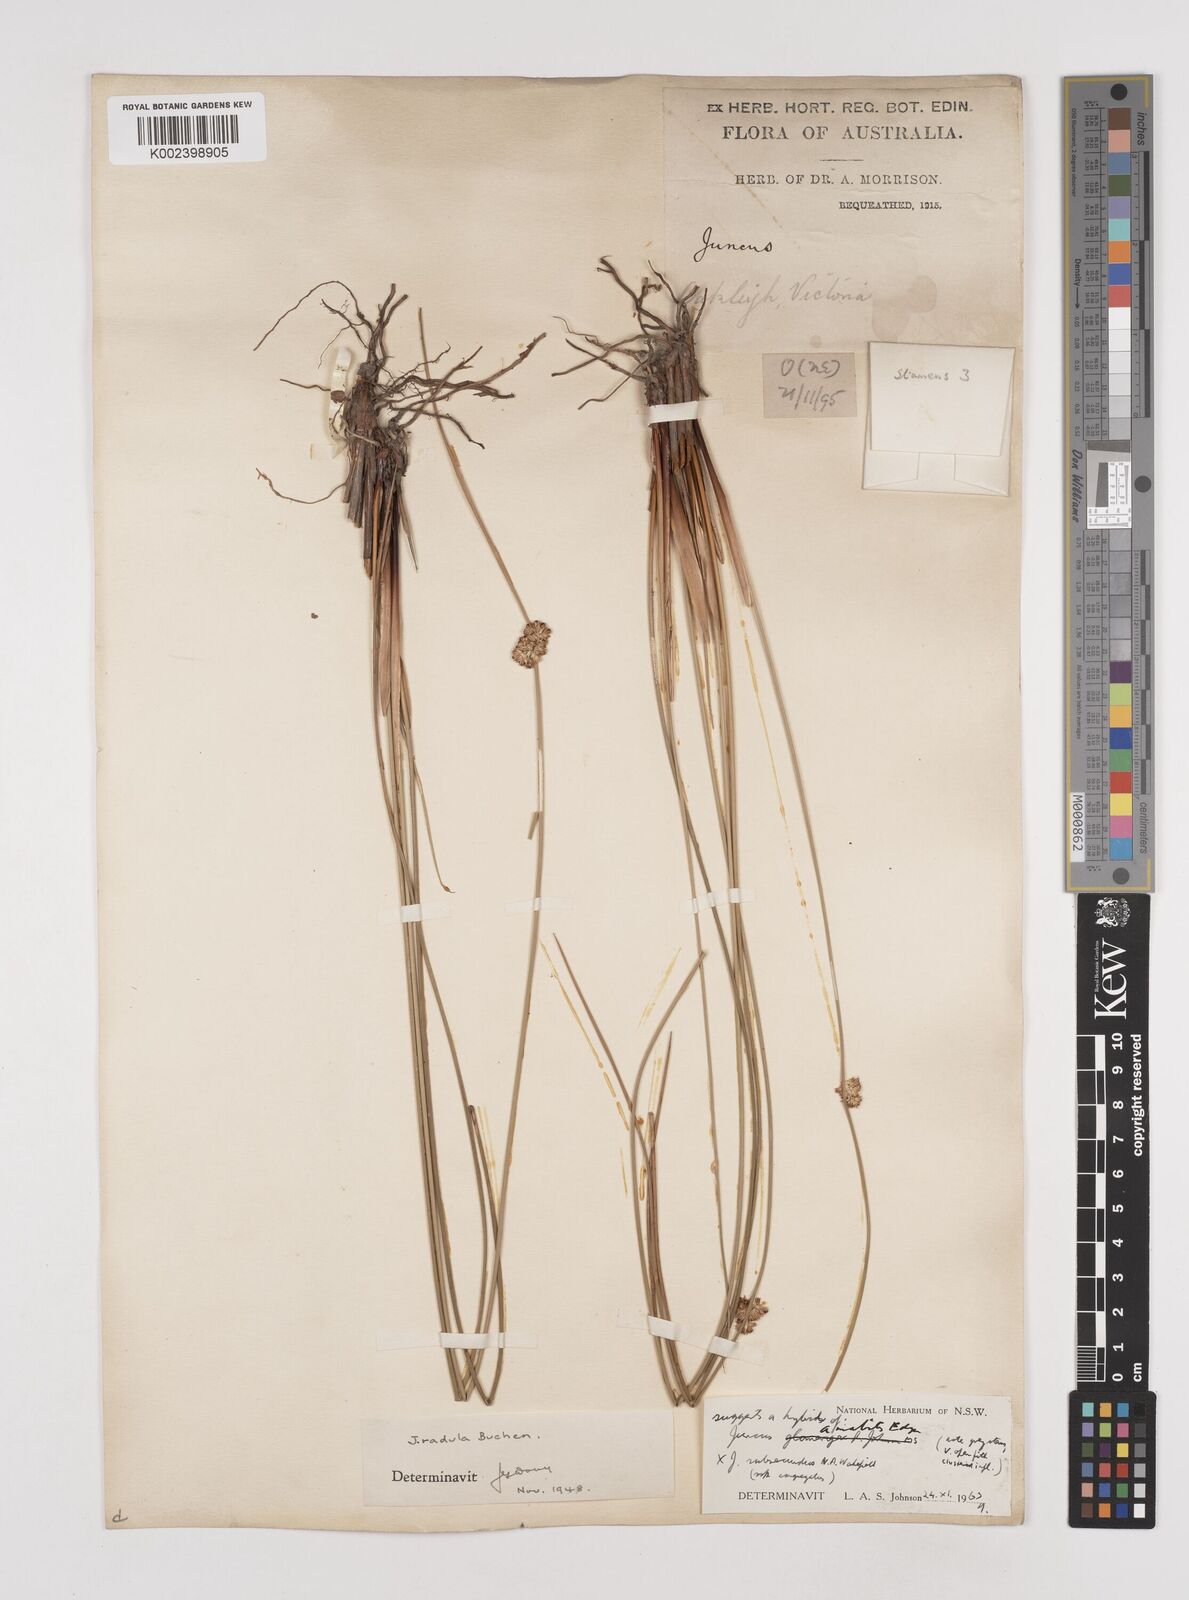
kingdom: Plantae
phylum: Tracheophyta
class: Liliopsida
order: Poales
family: Juncaceae
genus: Juncus
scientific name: Juncus amabilis
